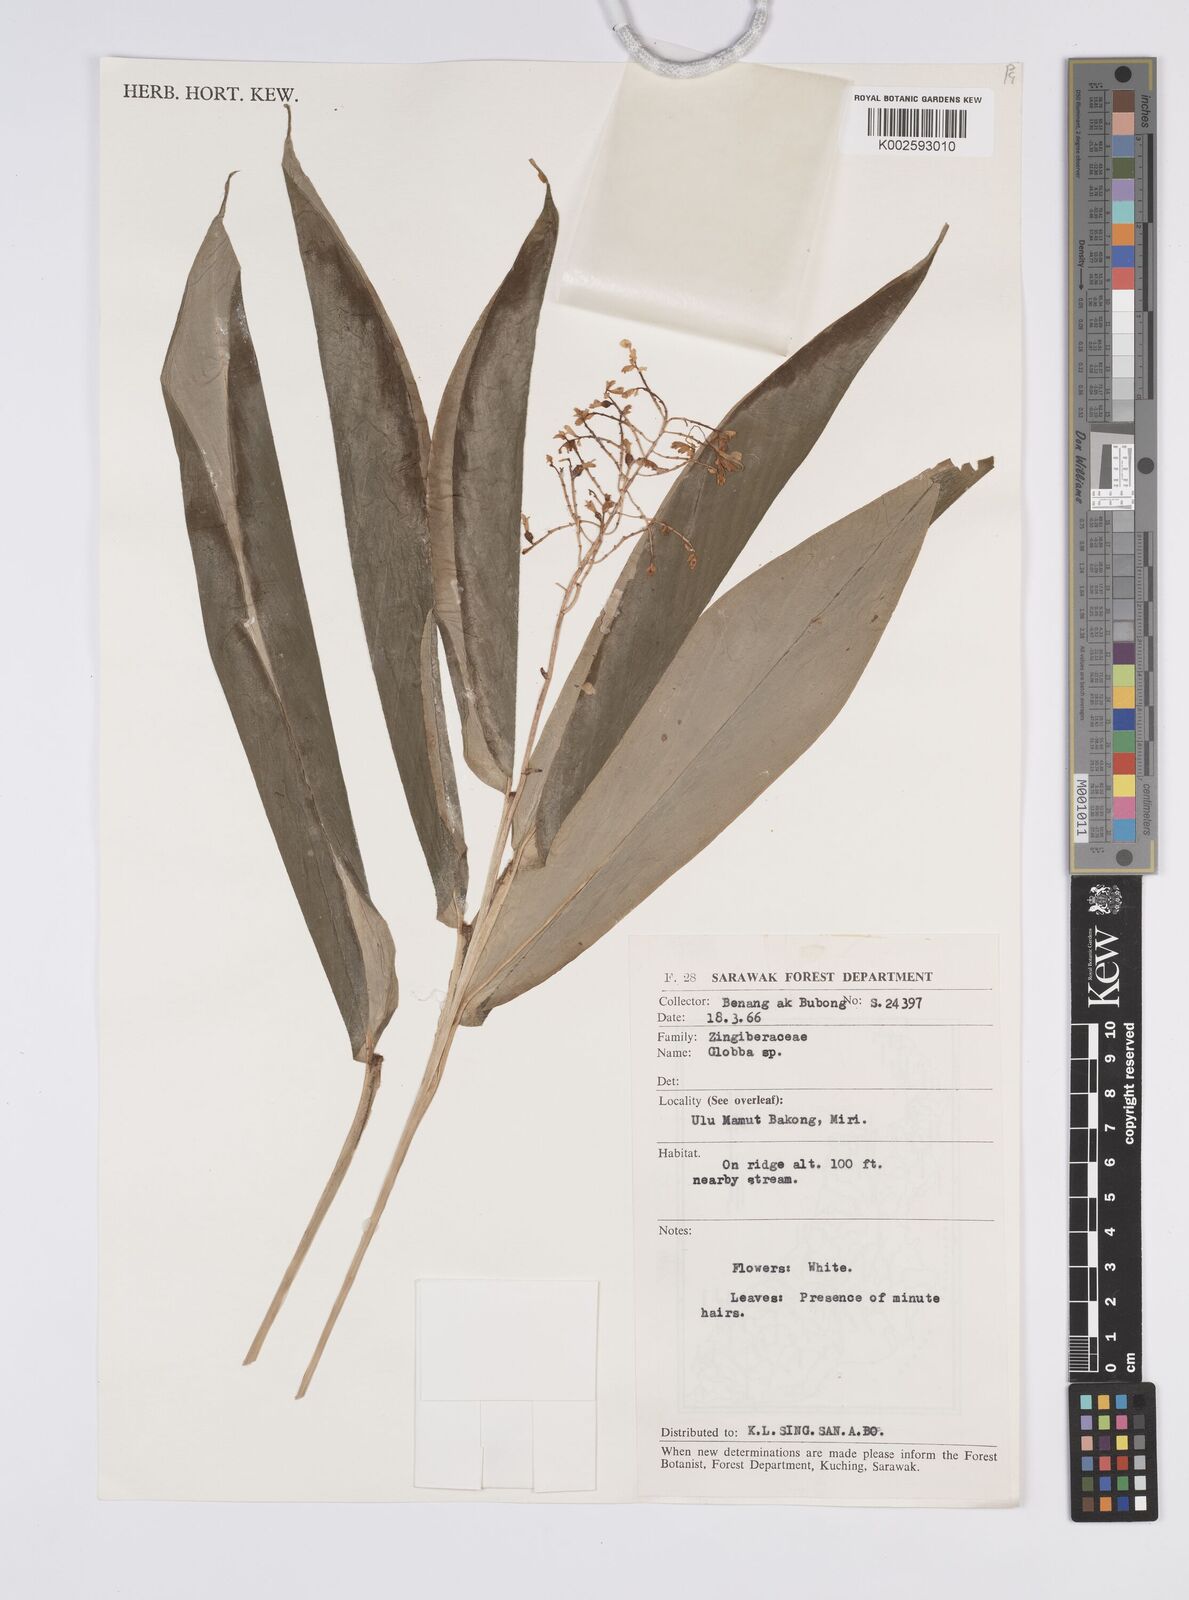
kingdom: Plantae
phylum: Tracheophyta
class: Liliopsida
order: Zingiberales
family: Zingiberaceae
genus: Globba
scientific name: Globba brachyanthera
